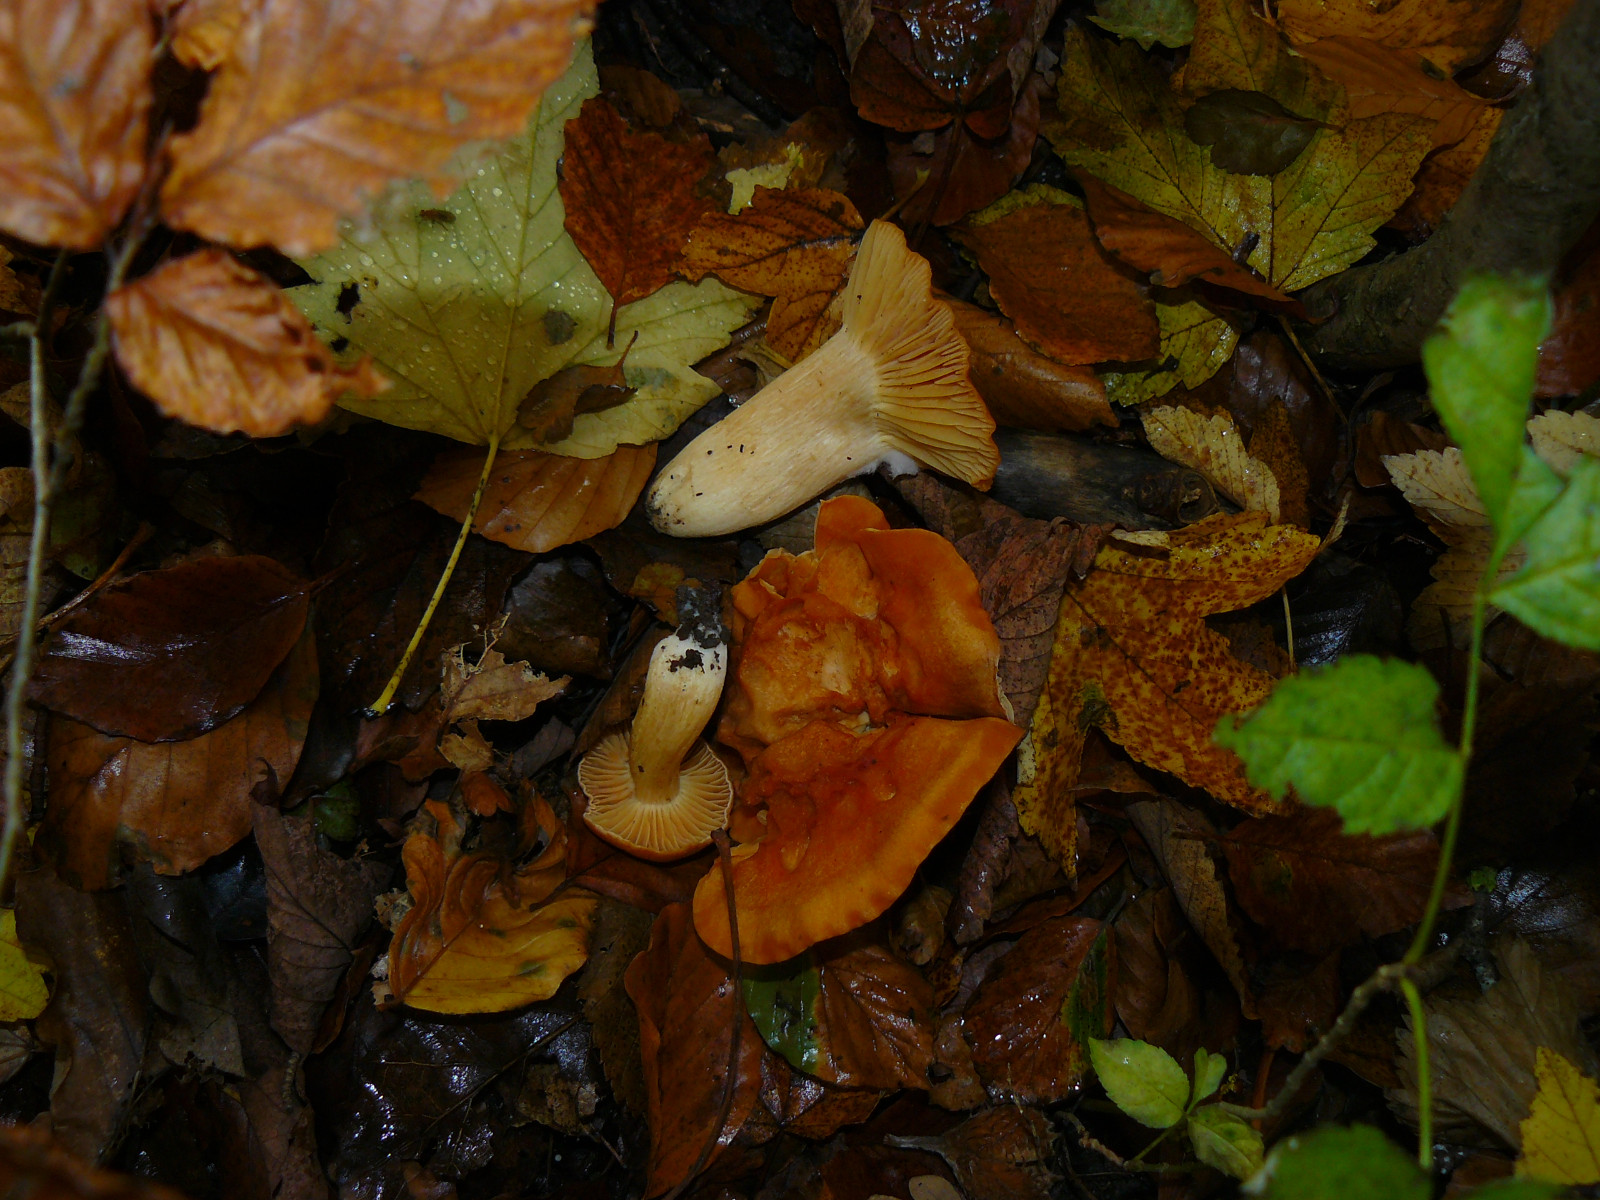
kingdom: Fungi
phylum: Basidiomycota
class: Agaricomycetes
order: Agaricales
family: Hygrophoraceae
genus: Cuphophyllus
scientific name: Cuphophyllus
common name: vokshat
